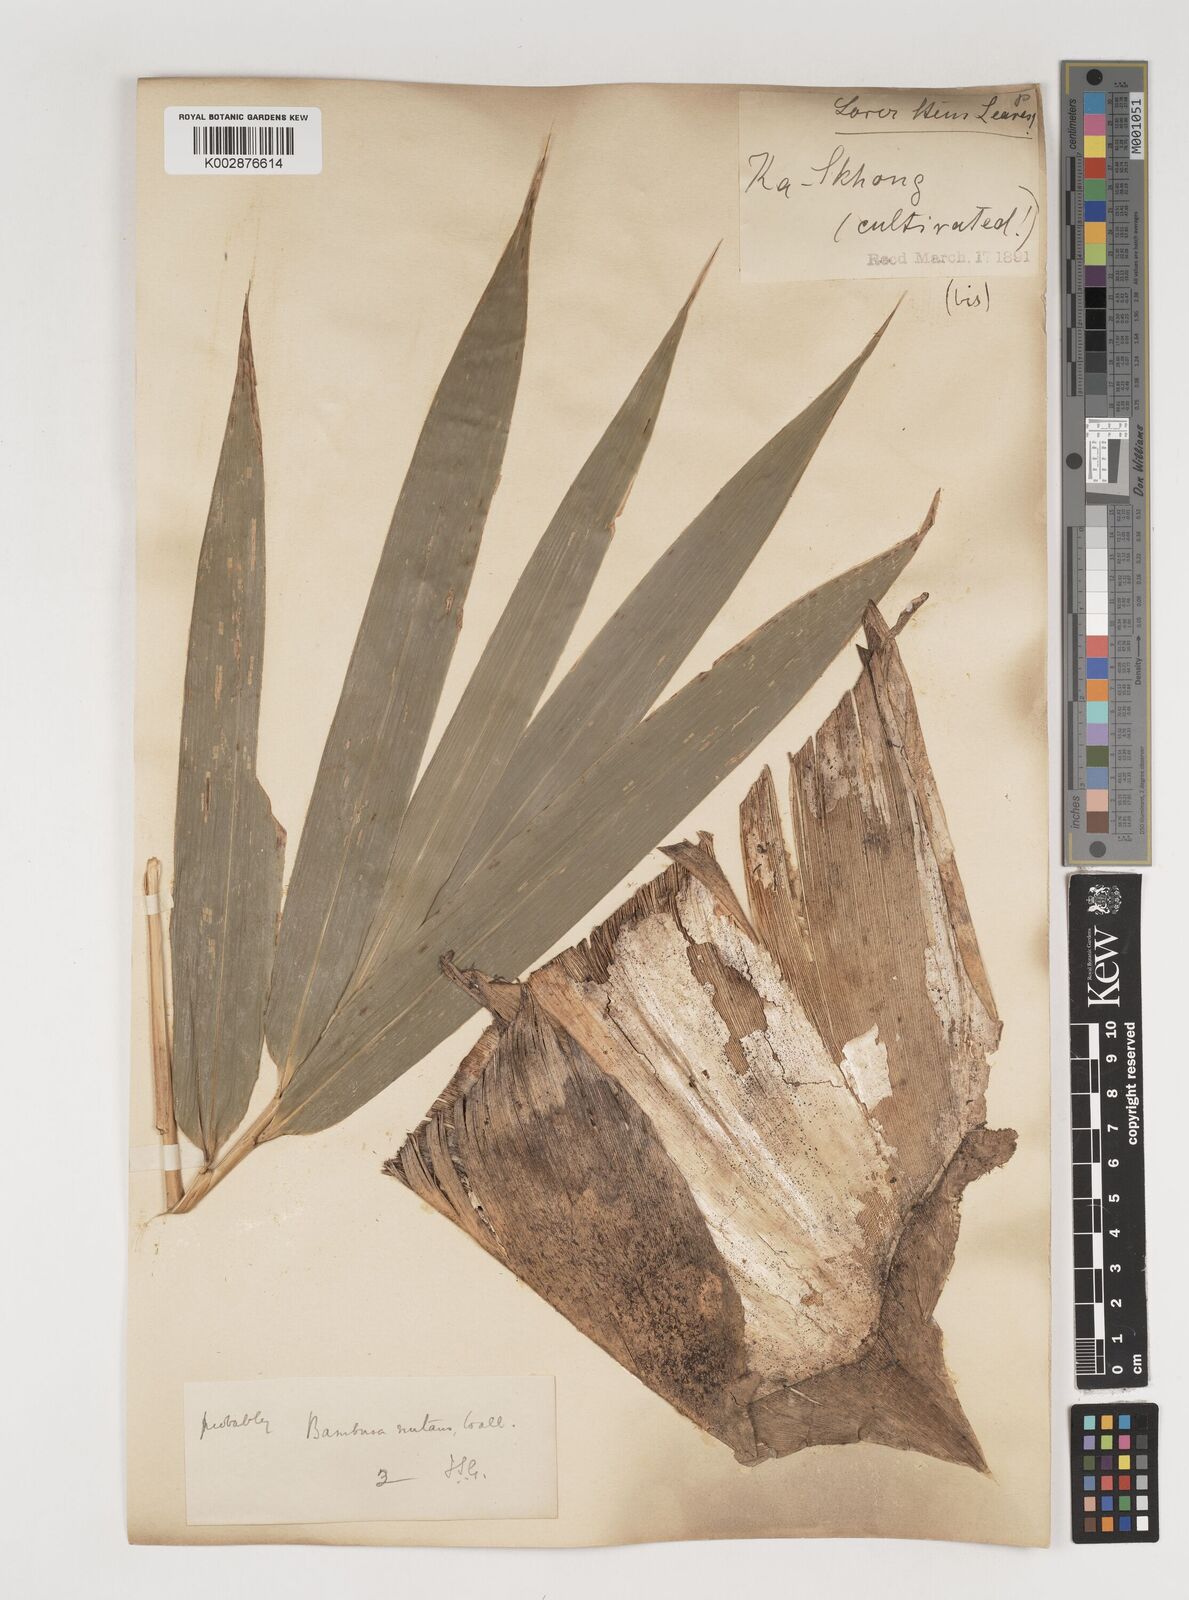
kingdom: Plantae
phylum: Tracheophyta
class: Liliopsida
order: Poales
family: Poaceae
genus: Bambusa
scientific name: Bambusa nutans
